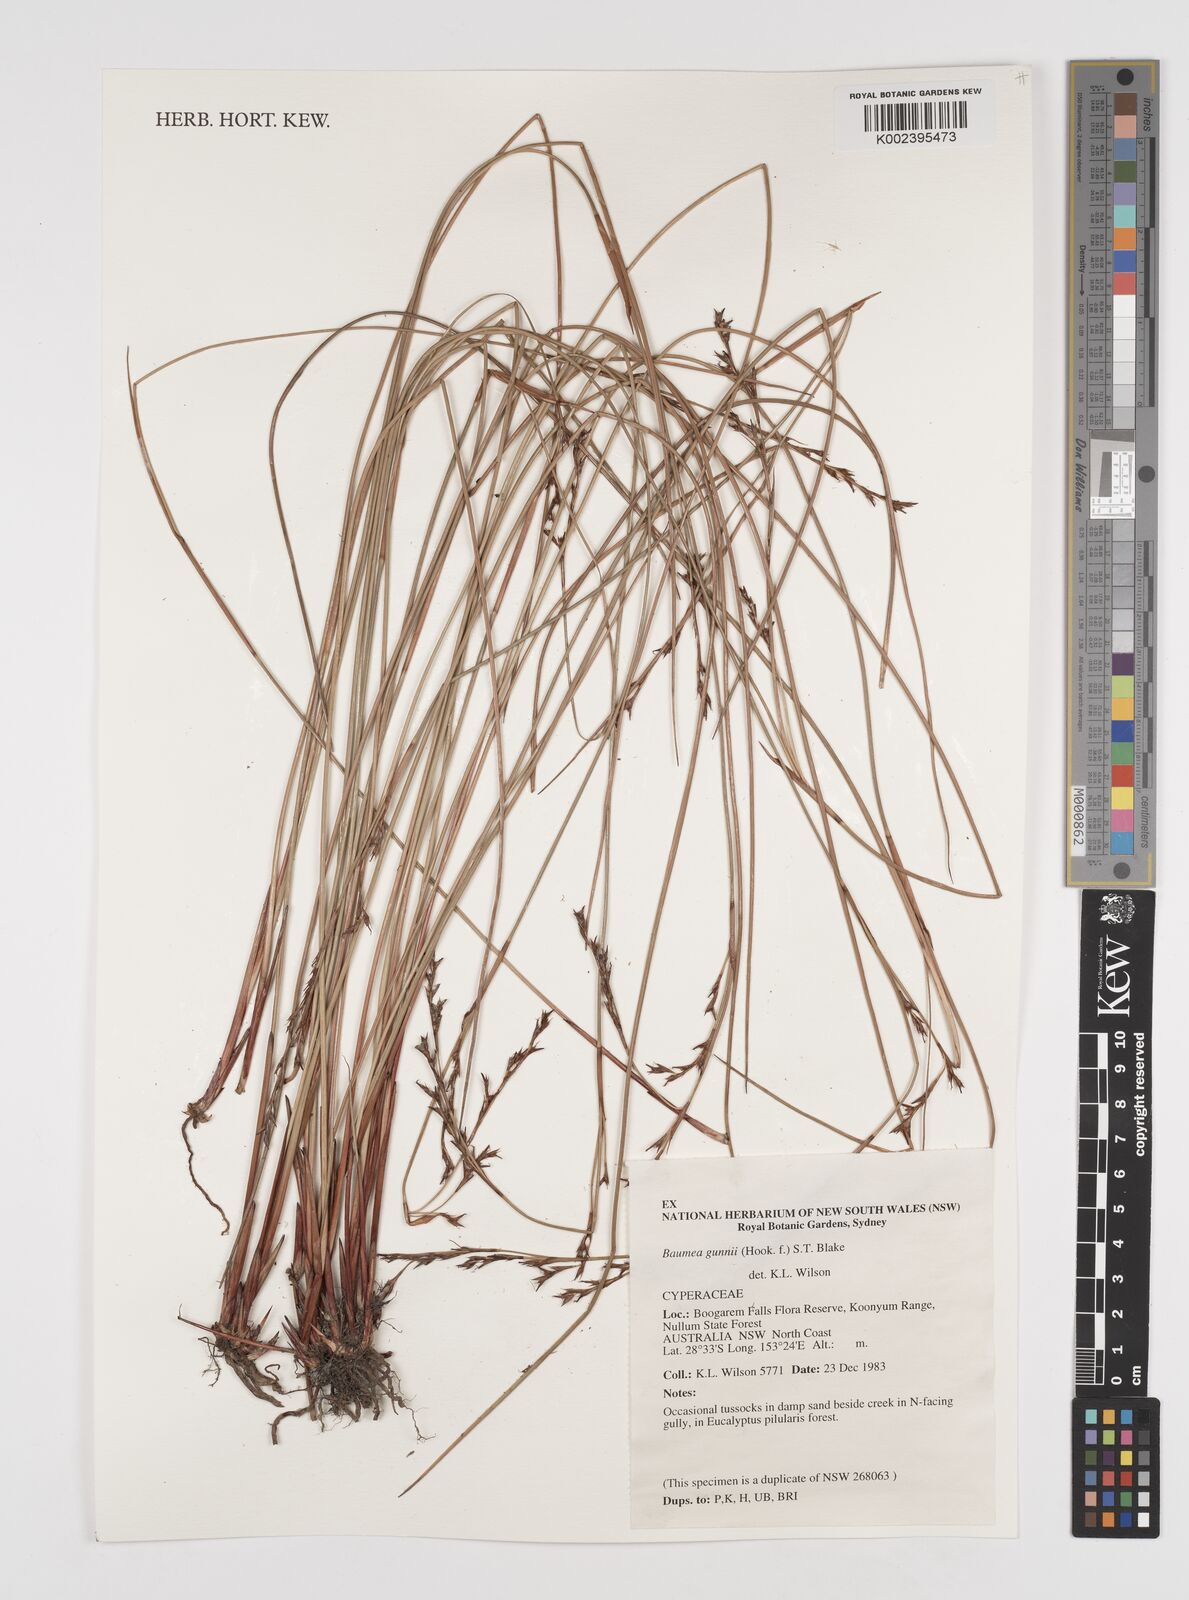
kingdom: Plantae
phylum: Tracheophyta
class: Liliopsida
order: Poales
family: Cyperaceae
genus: Machaerina
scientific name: Machaerina gunnii
